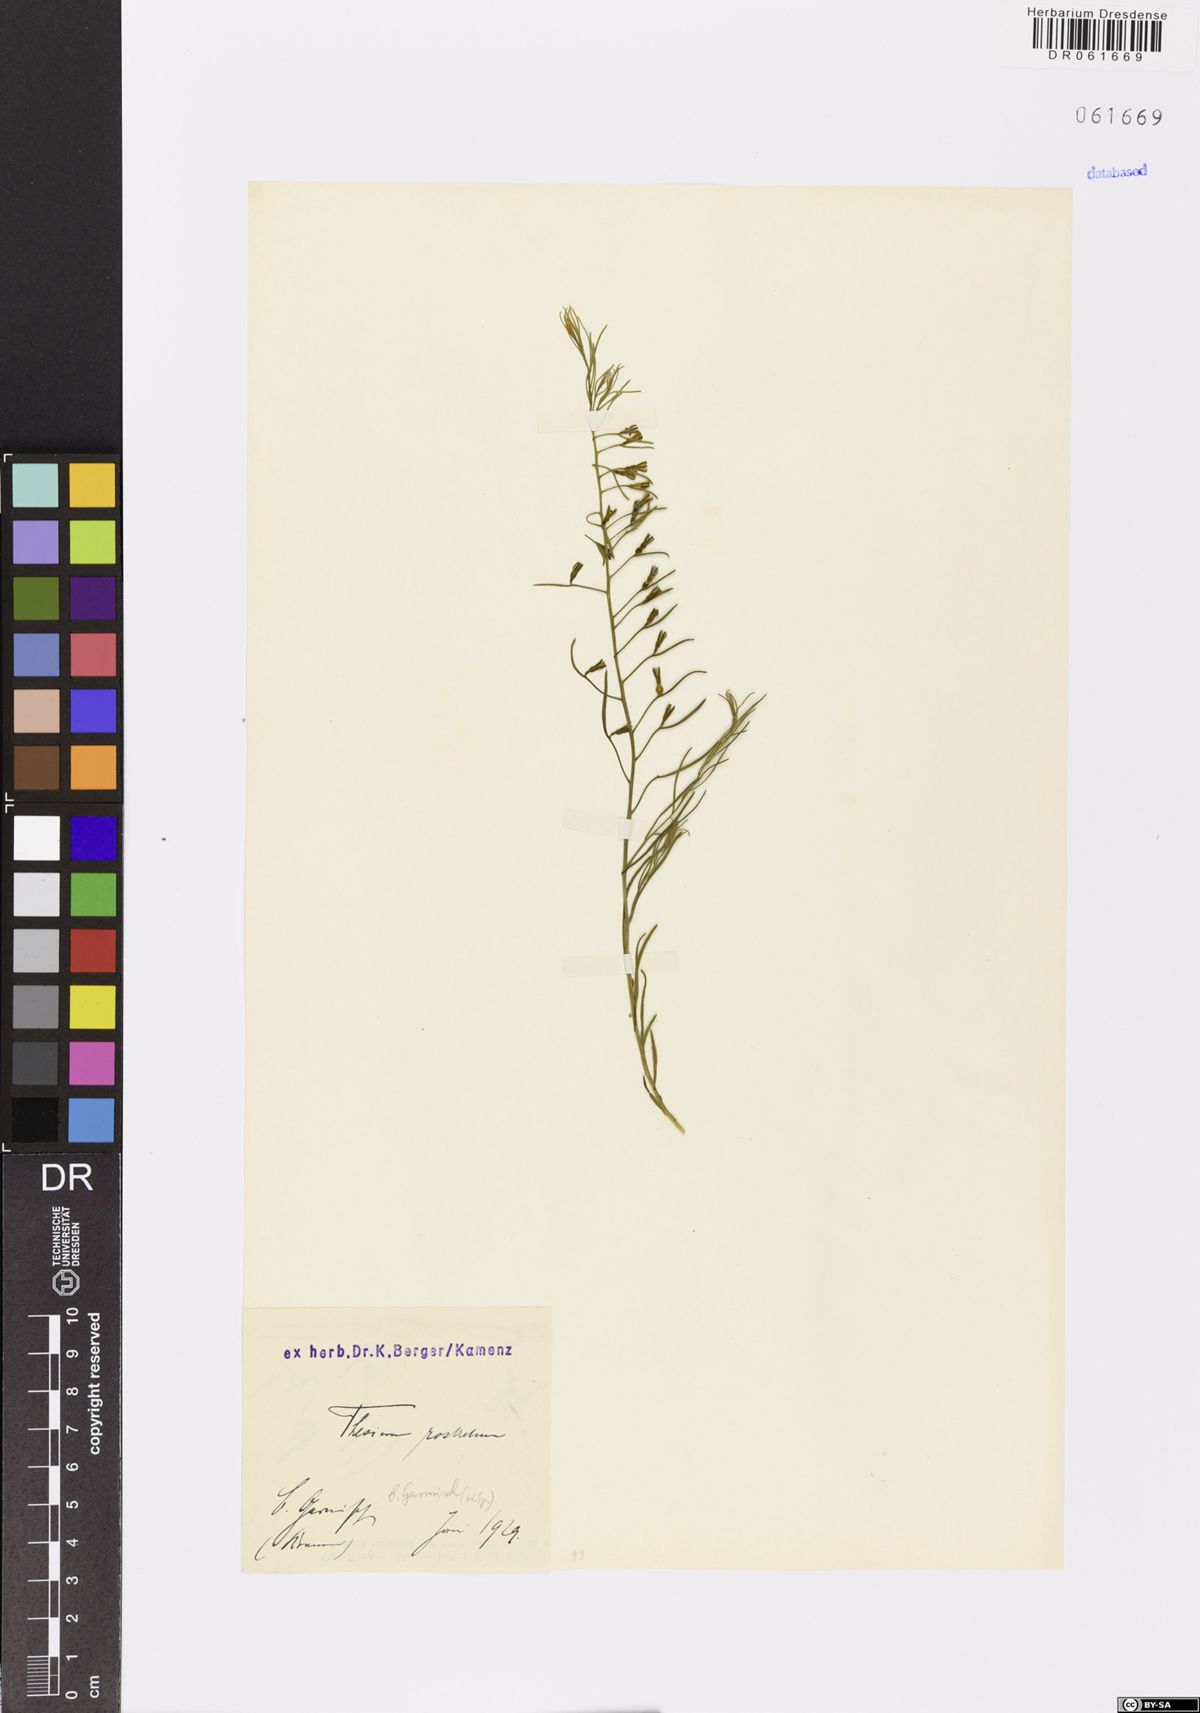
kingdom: Plantae
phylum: Tracheophyta
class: Magnoliopsida
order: Santalales
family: Thesiaceae
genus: Thesium
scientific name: Thesium rostratum
